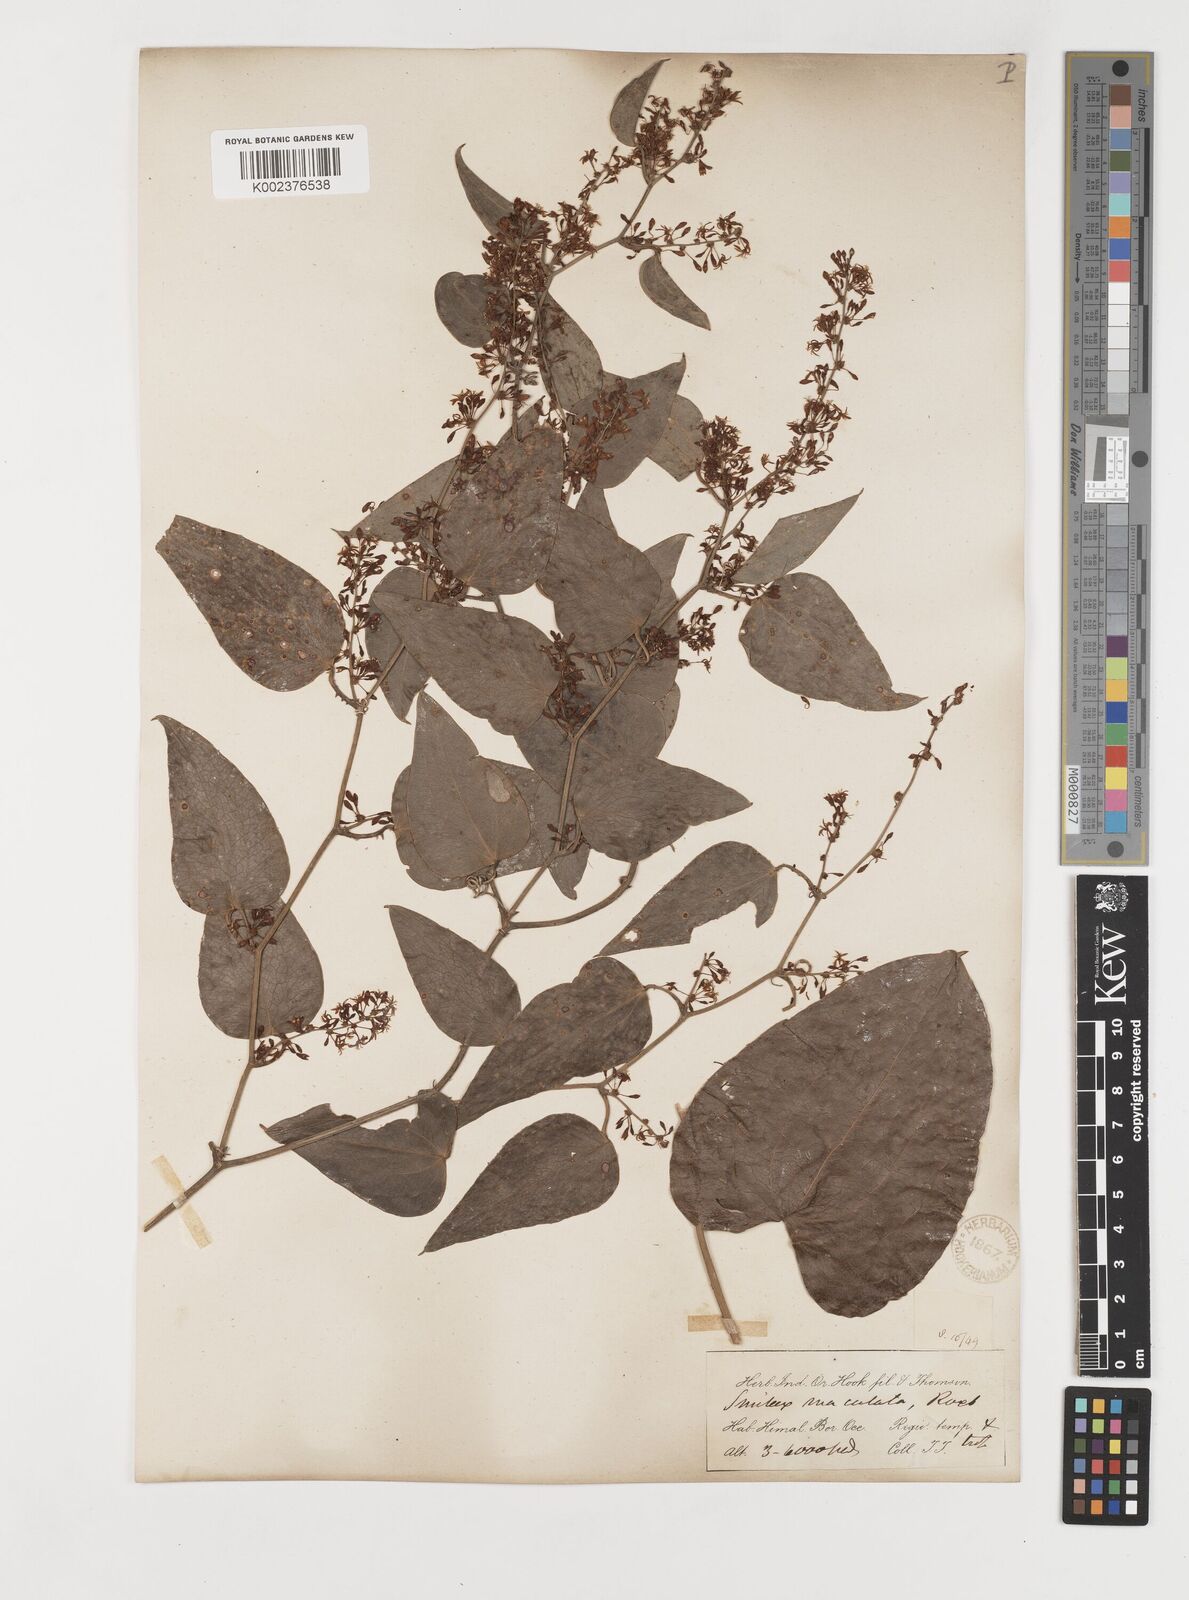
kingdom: Plantae
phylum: Tracheophyta
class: Liliopsida
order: Liliales
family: Smilacaceae
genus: Smilax
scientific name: Smilax aspera
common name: Common smilax
